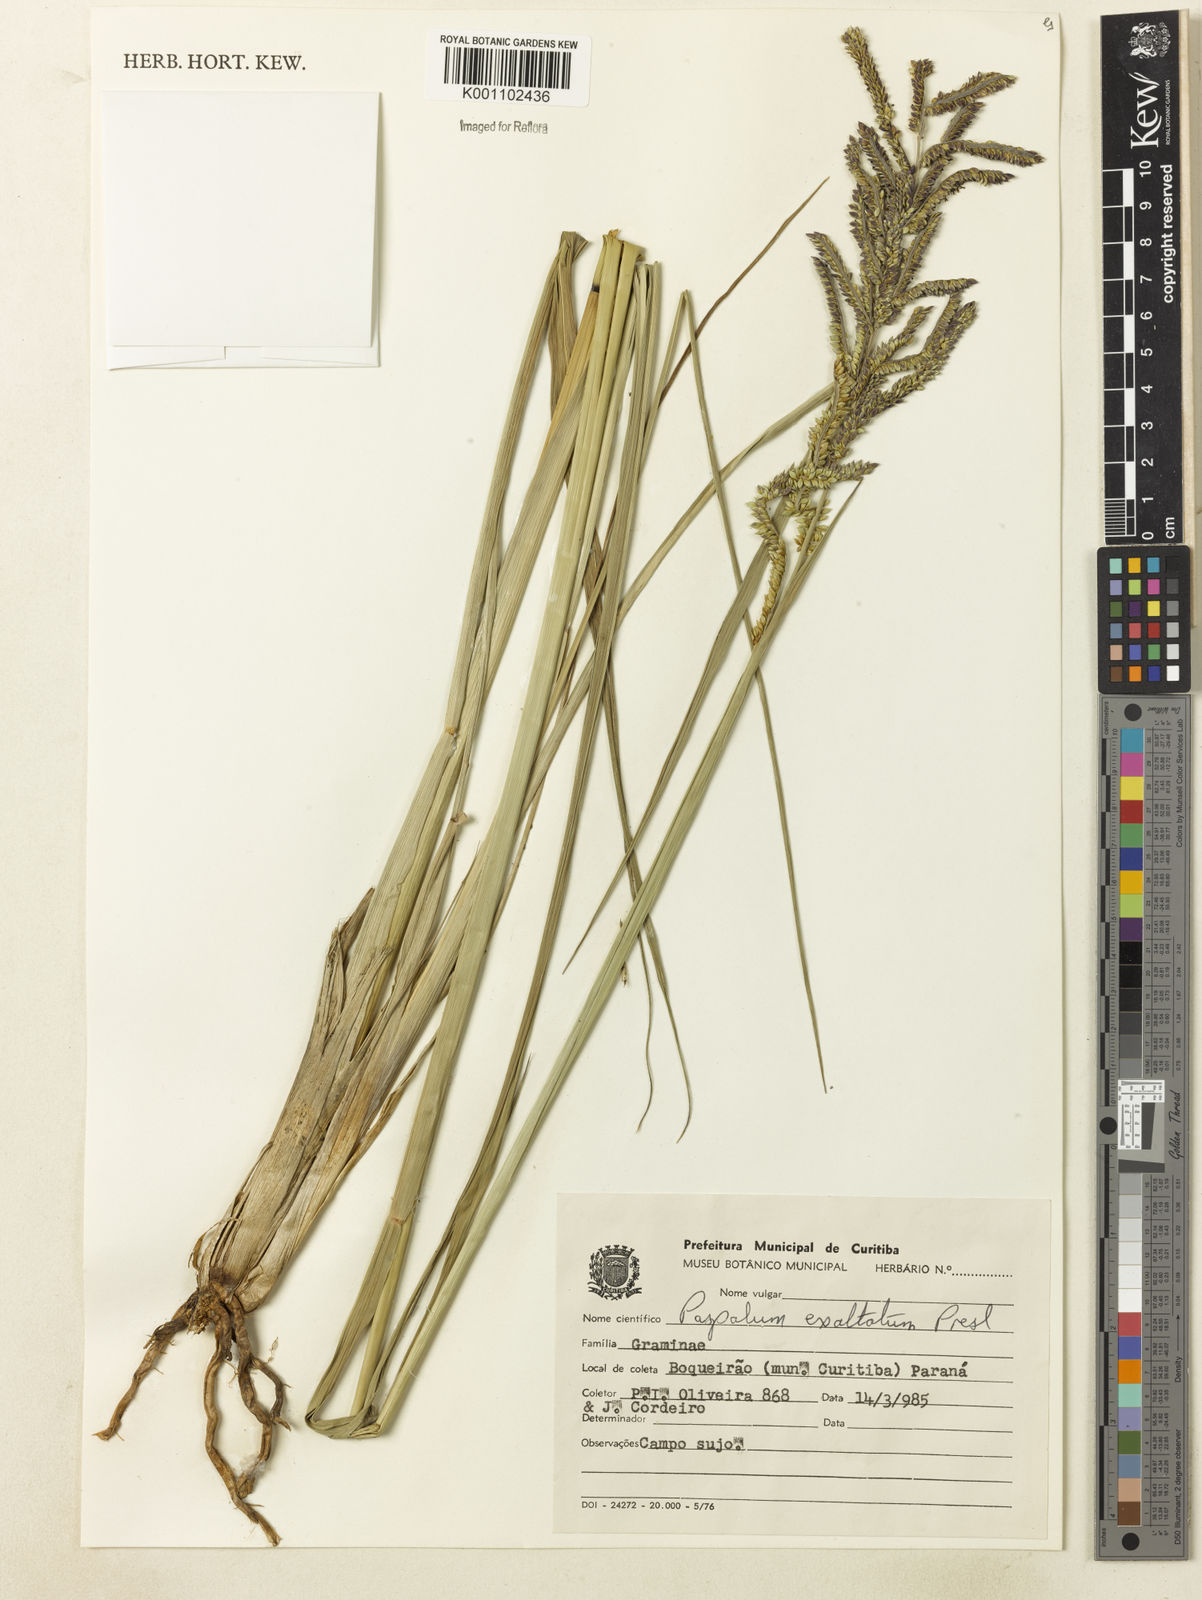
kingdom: Plantae
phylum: Tracheophyta
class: Liliopsida
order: Poales
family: Poaceae
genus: Paspalum
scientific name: Paspalum exaltatum
